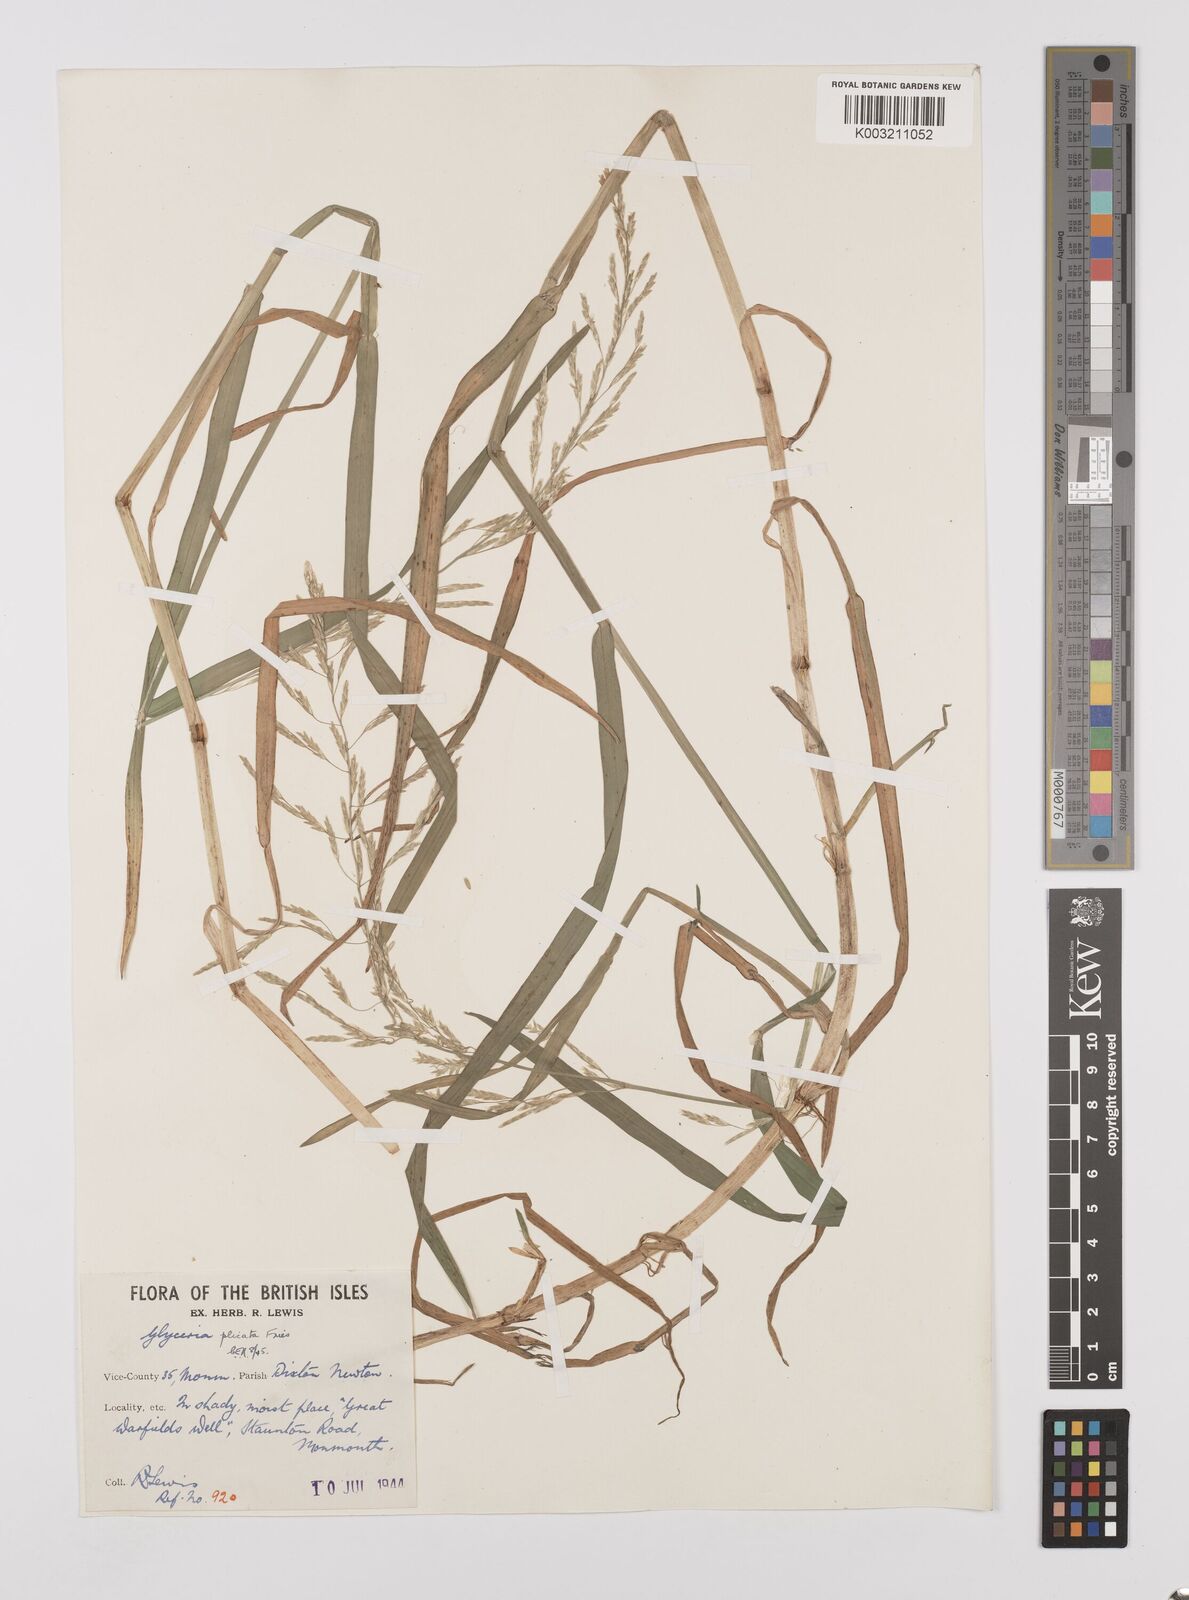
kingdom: Plantae
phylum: Tracheophyta
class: Liliopsida
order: Poales
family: Poaceae
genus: Glyceria
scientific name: Glyceria notata
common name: Plicate sweet-grass
